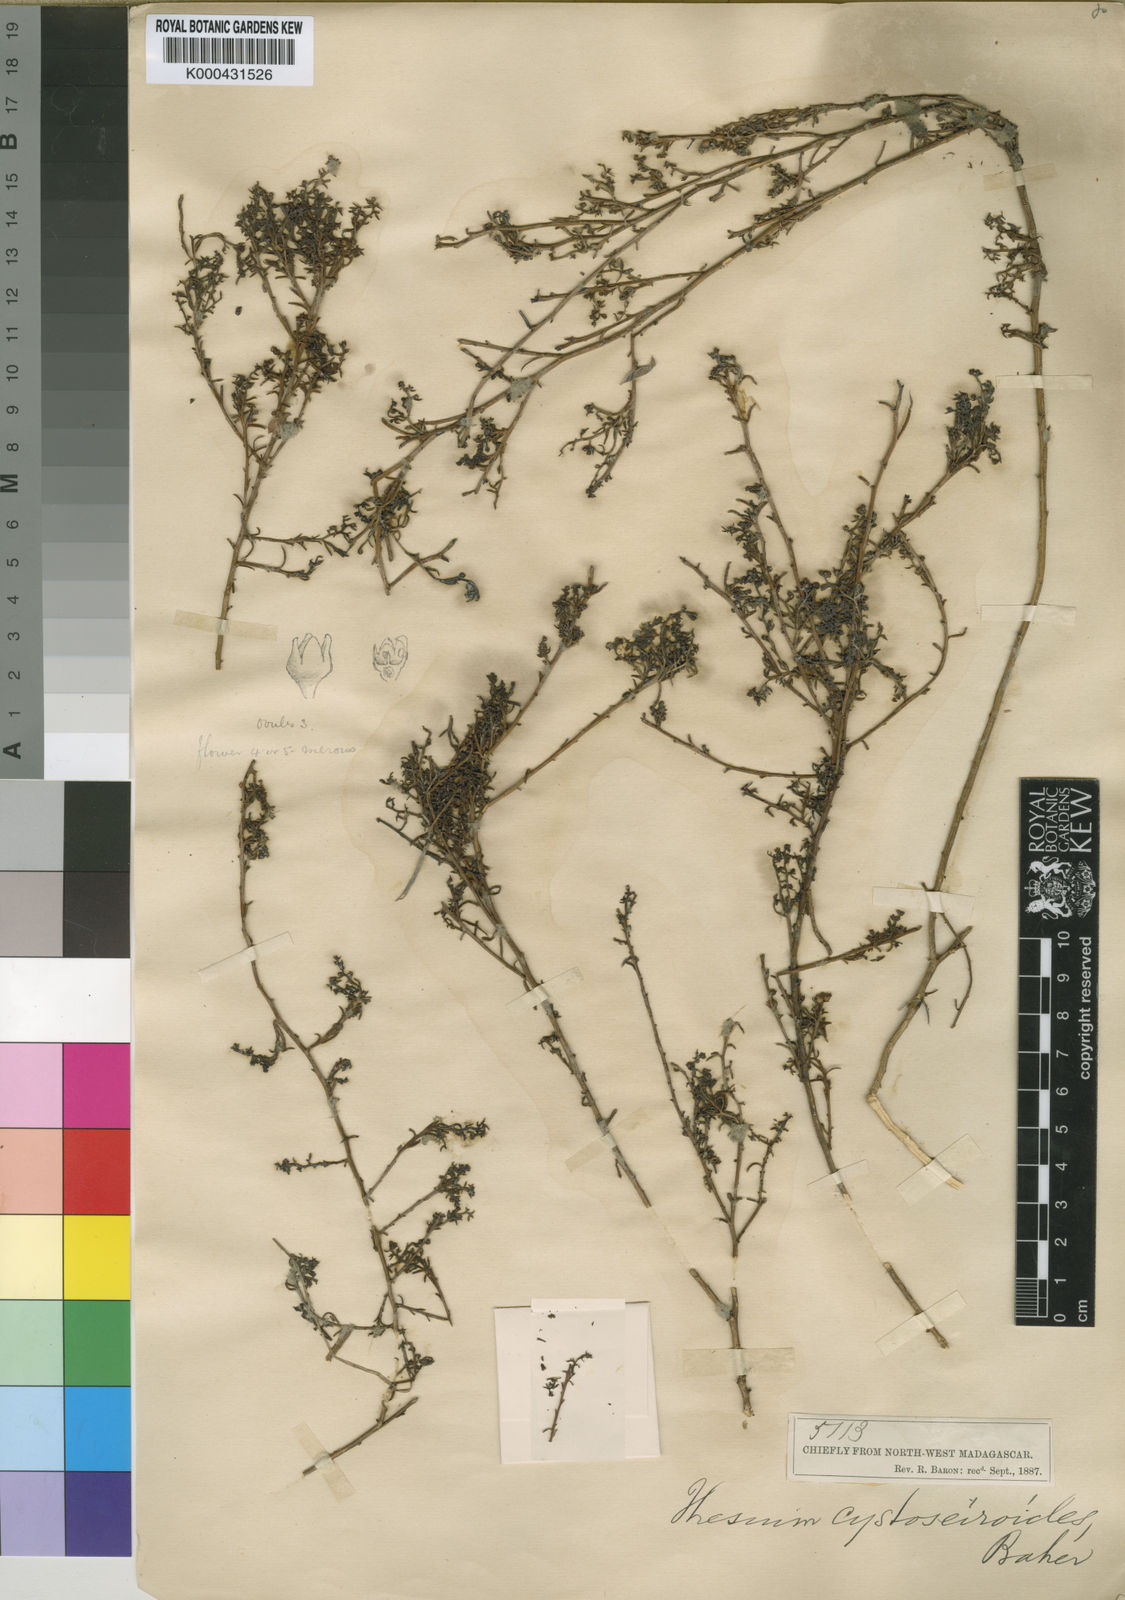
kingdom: Plantae
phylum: Tracheophyta
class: Magnoliopsida
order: Santalales
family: Thesiaceae
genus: Thesium
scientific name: Thesium cystoseiroides
